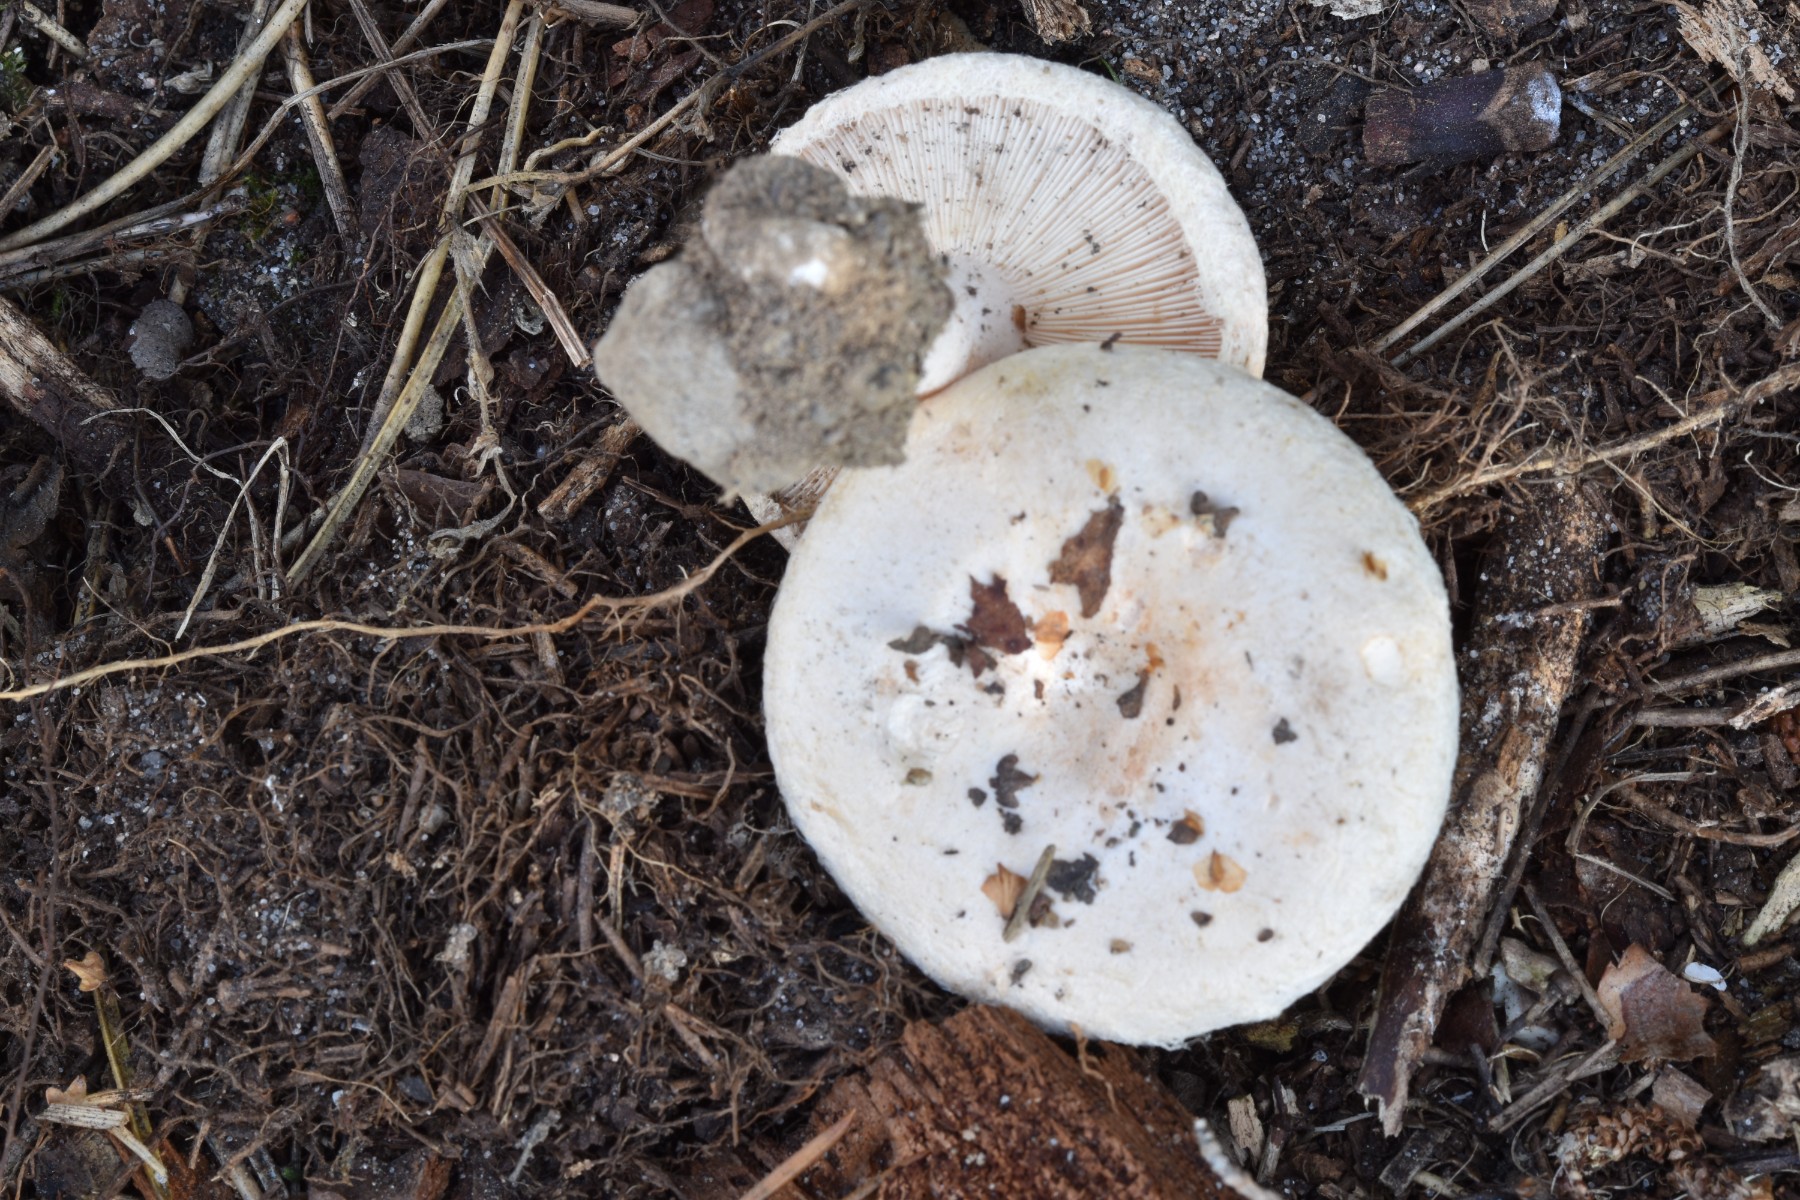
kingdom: Fungi
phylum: Basidiomycota
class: Agaricomycetes
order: Russulales
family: Russulaceae
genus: Lactarius
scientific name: Lactarius pubescens
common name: dunet mælkehat
